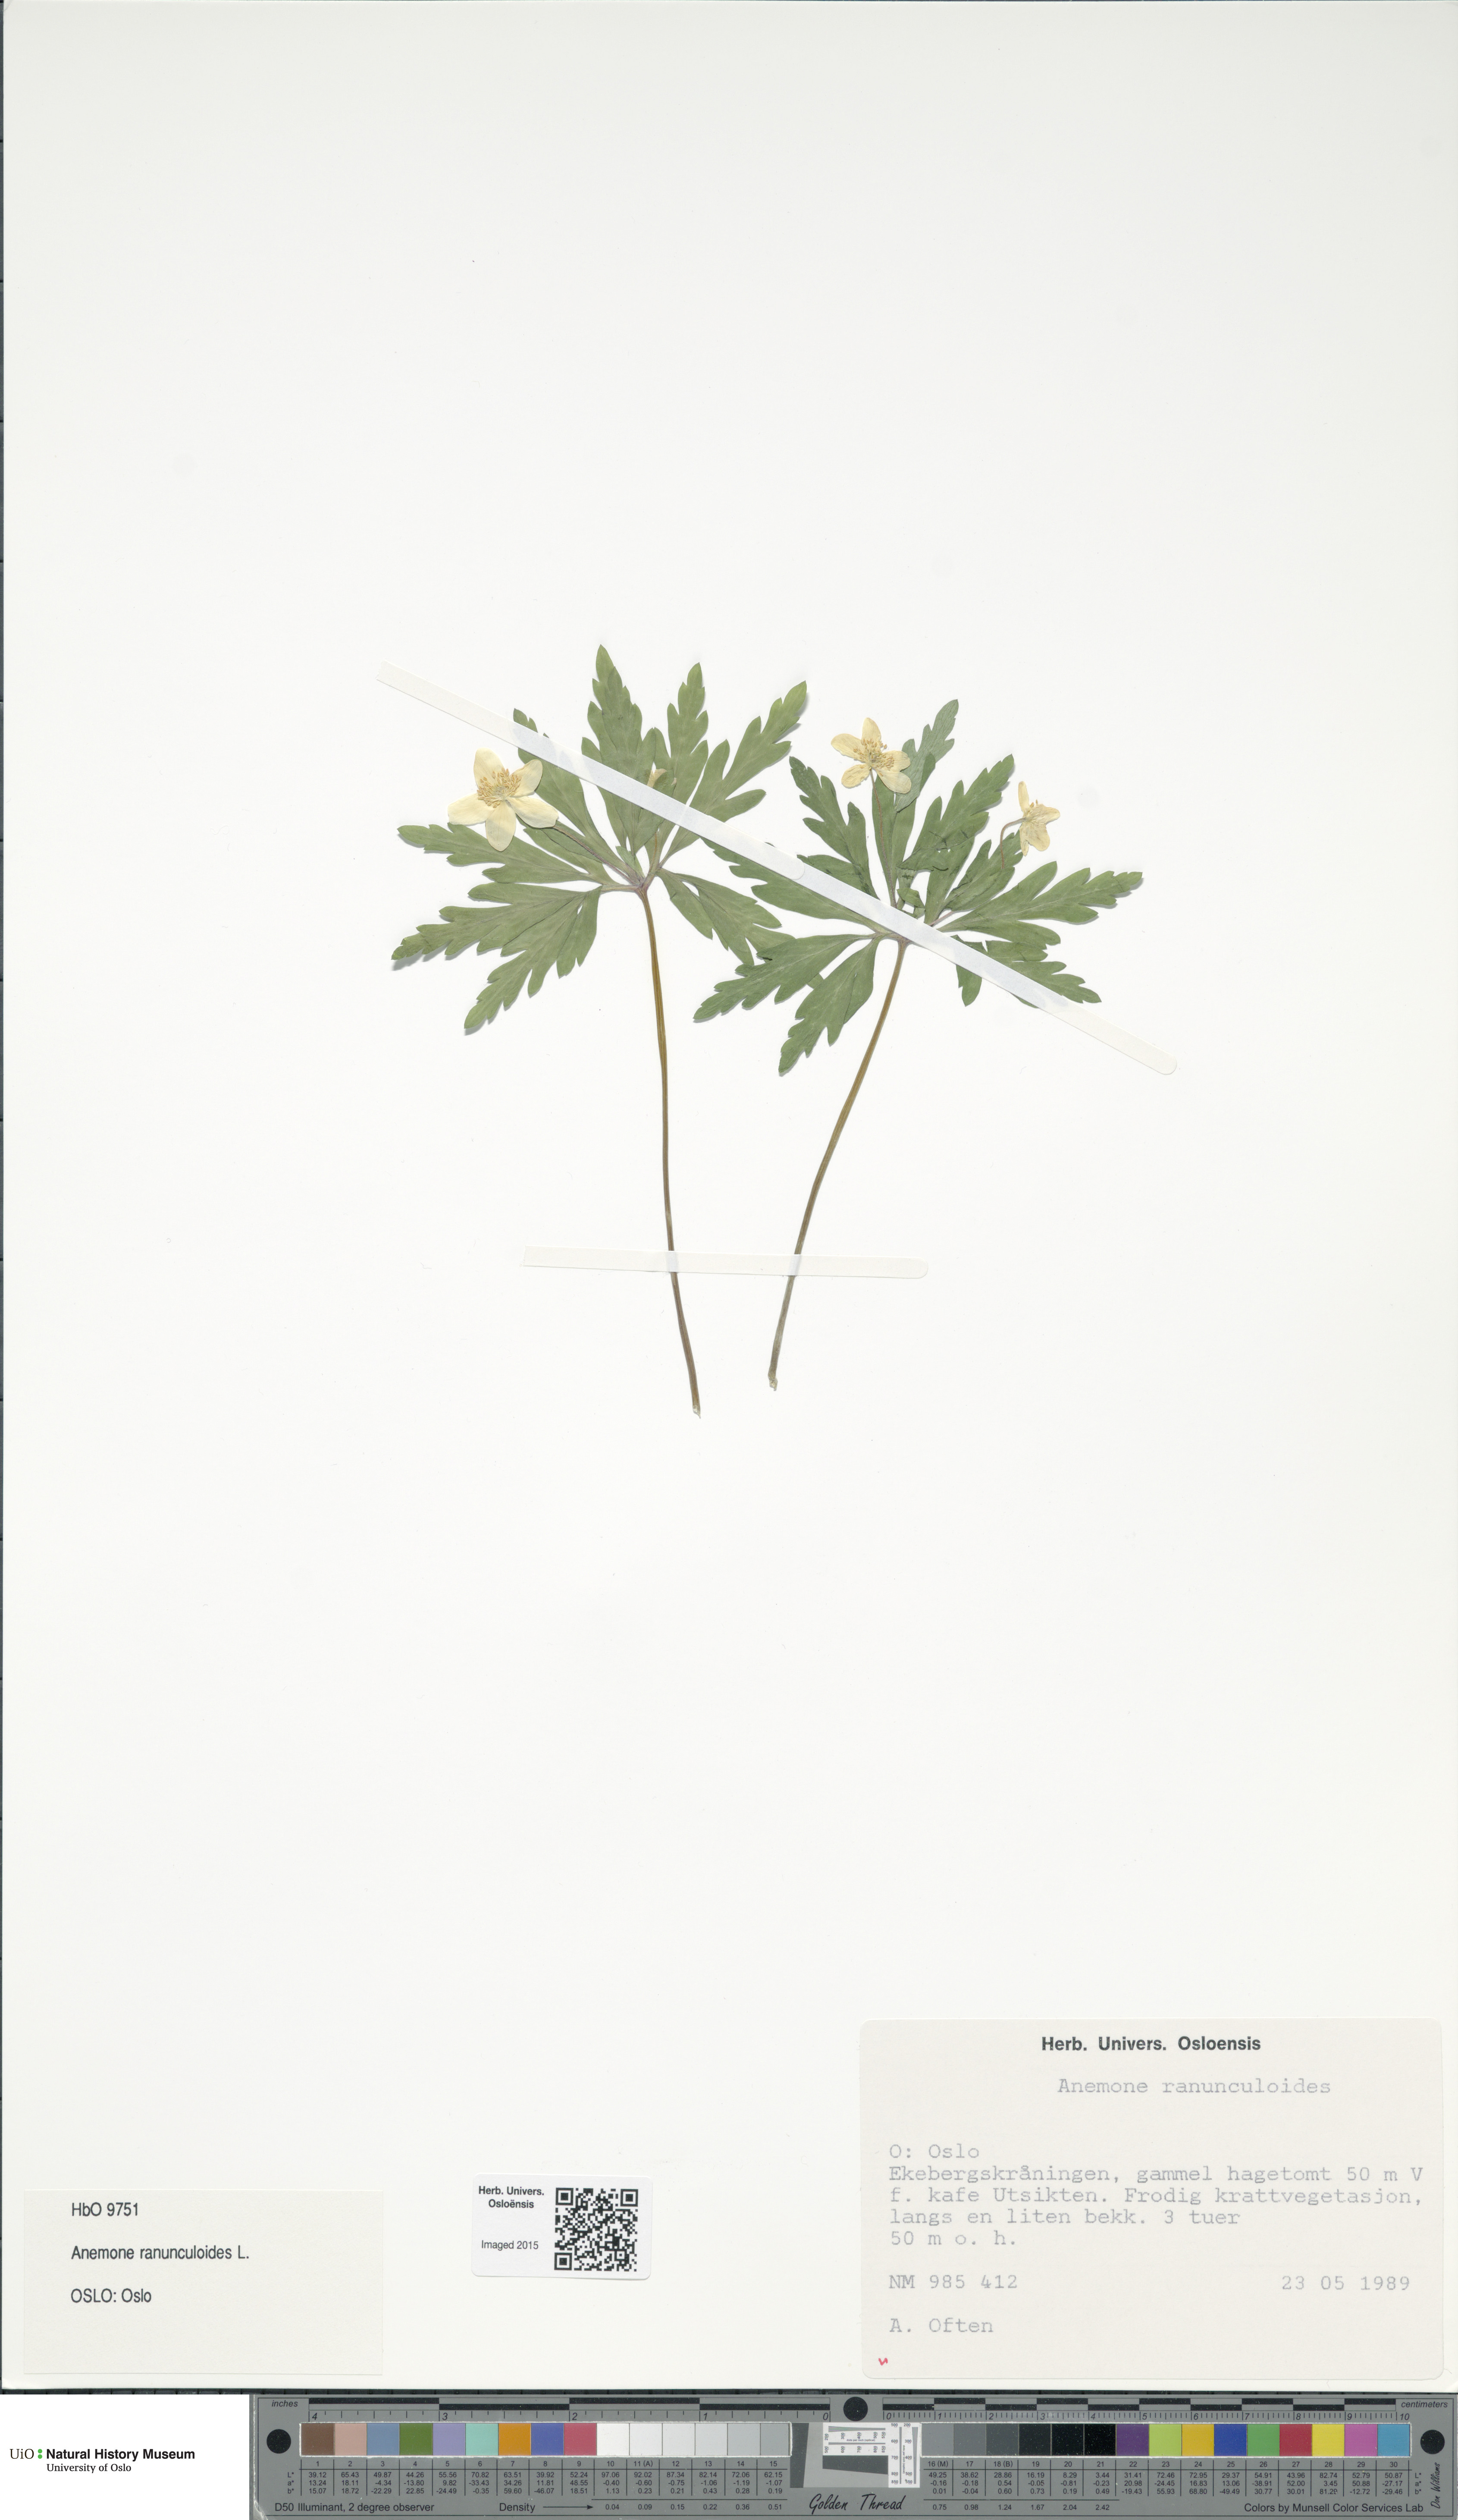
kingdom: Plantae
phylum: Tracheophyta
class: Magnoliopsida
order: Ranunculales
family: Ranunculaceae
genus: Anemone
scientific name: Anemone ranunculoides
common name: Yellow anemone
